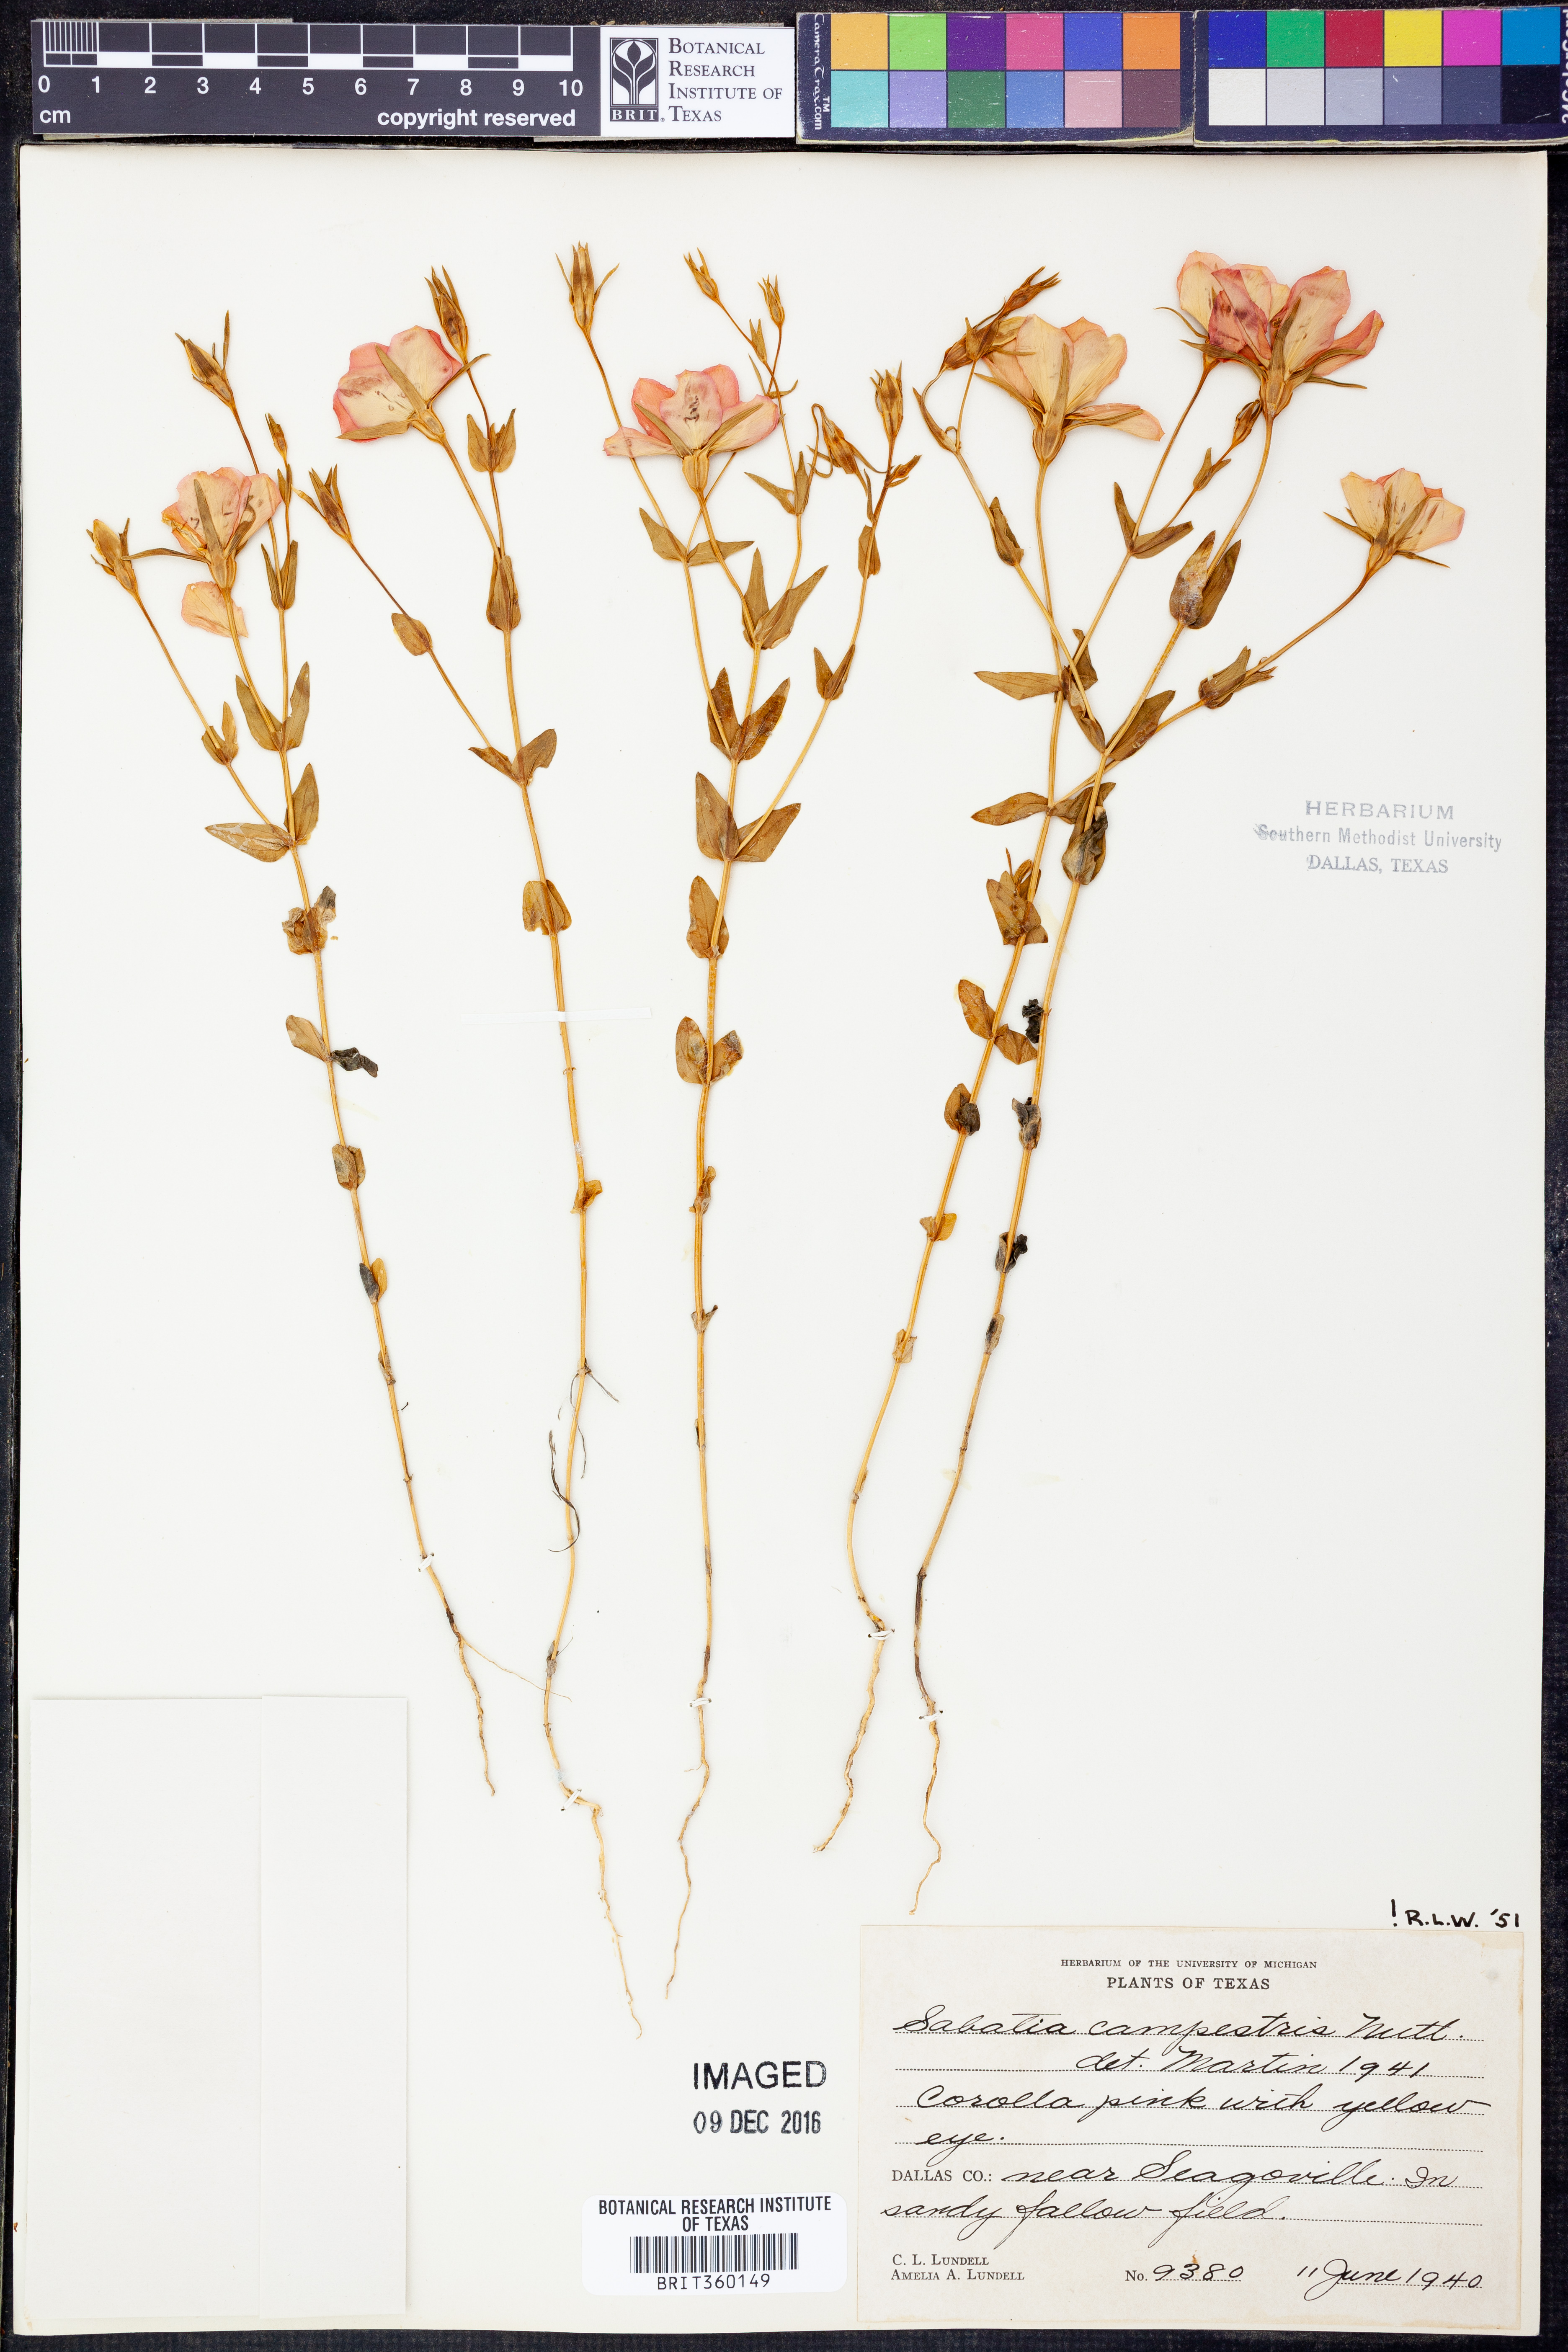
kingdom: Plantae
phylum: Tracheophyta
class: Magnoliopsida
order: Gentianales
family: Gentianaceae
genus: Sabatia
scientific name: Sabatia campestris
